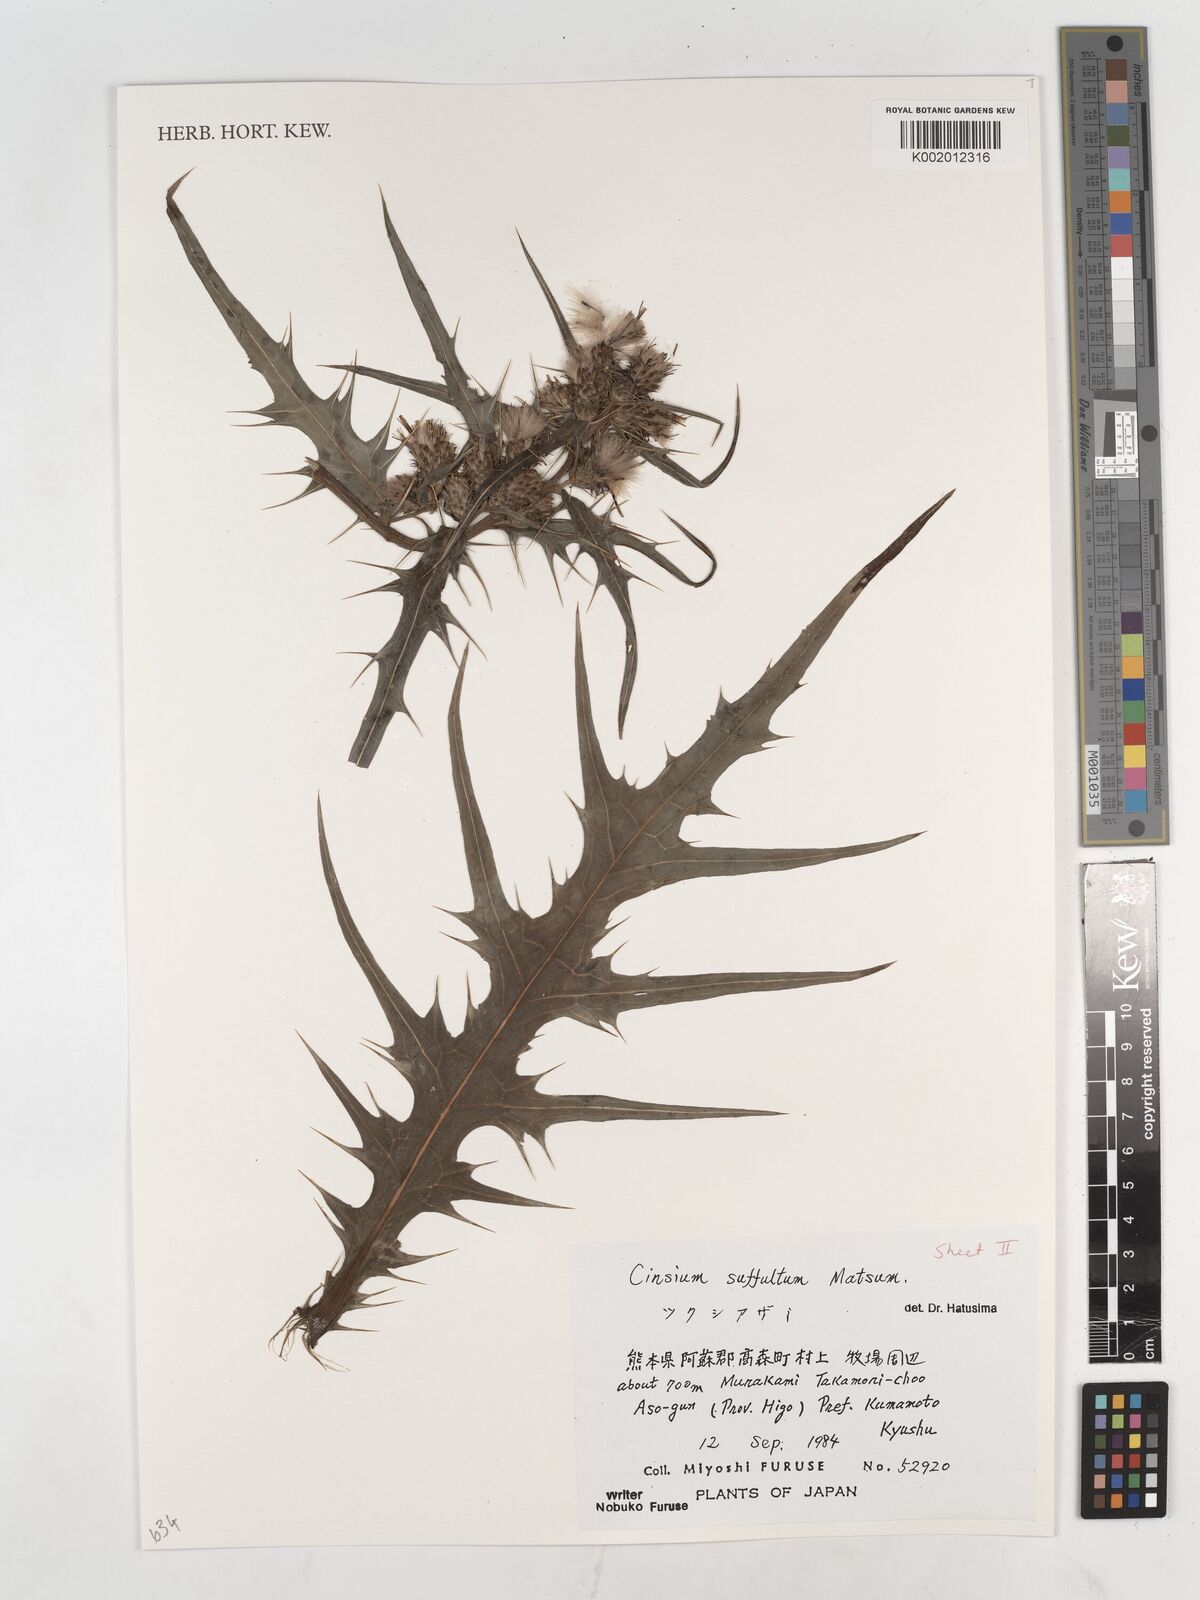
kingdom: Plantae
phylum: Tracheophyta
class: Magnoliopsida
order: Asterales
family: Asteraceae
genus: Cirsium
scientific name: Cirsium suffultum
